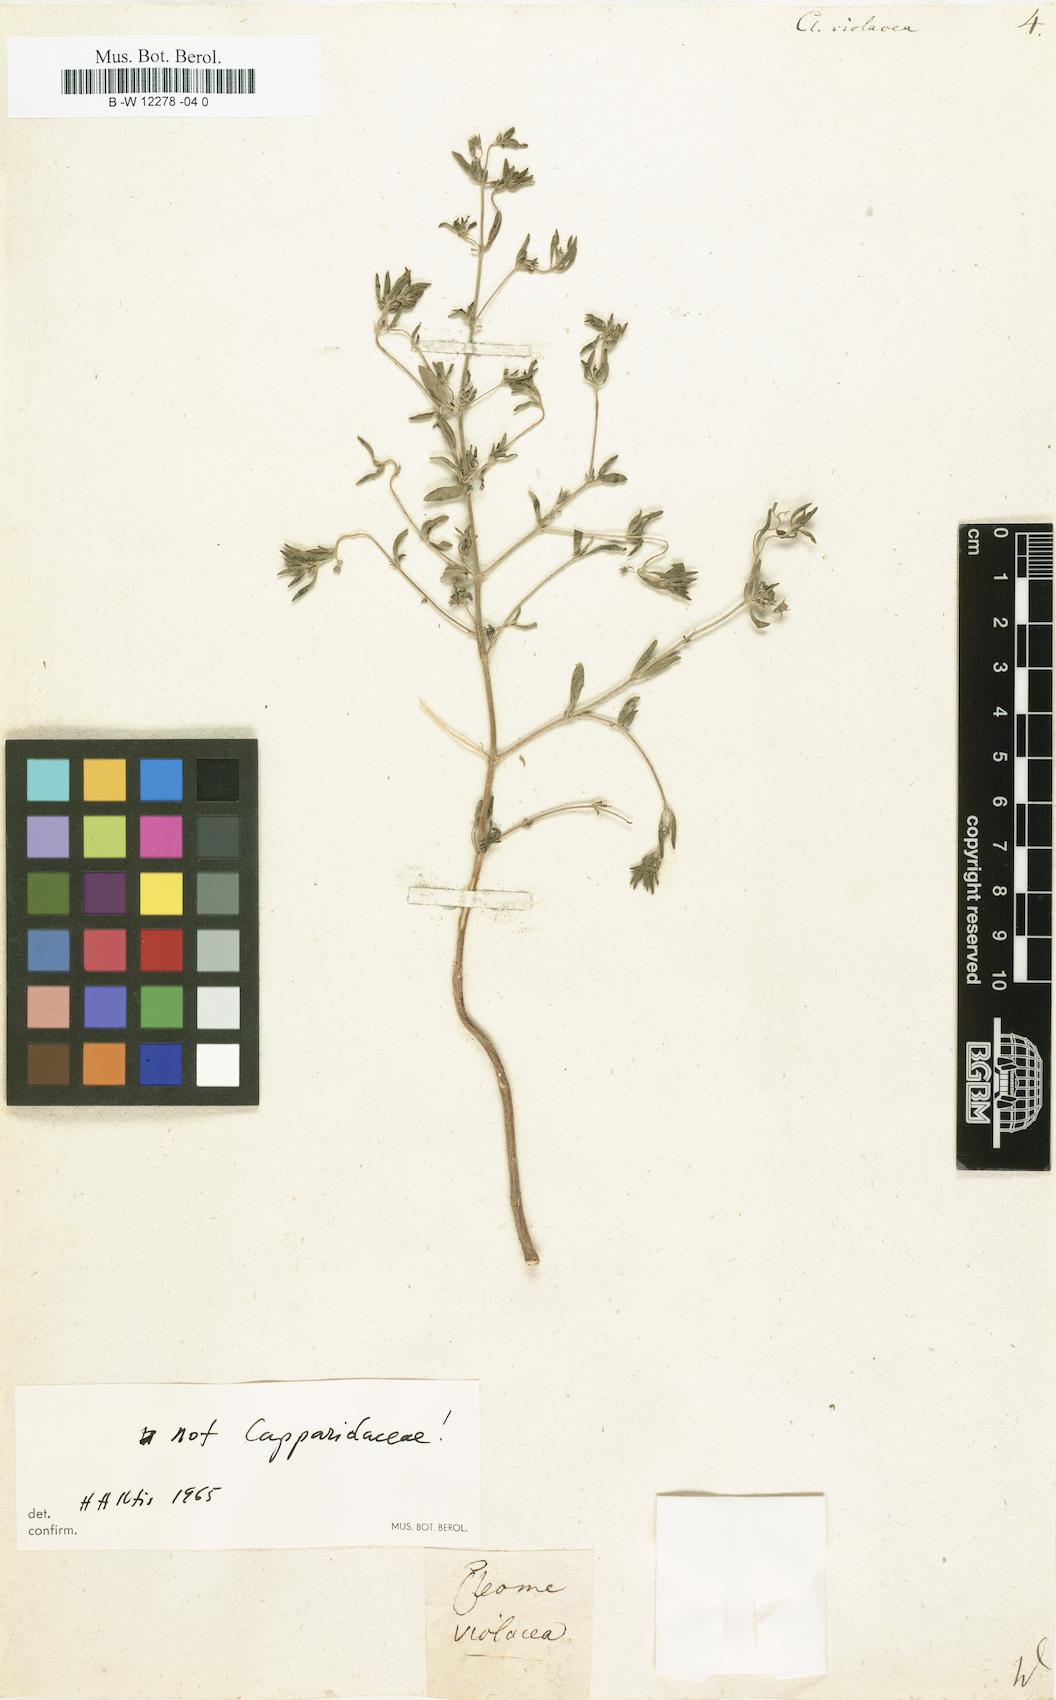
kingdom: Plantae
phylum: Tracheophyta
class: Magnoliopsida
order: Brassicales
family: Cleomaceae
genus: Cleome
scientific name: Cleome violacea
